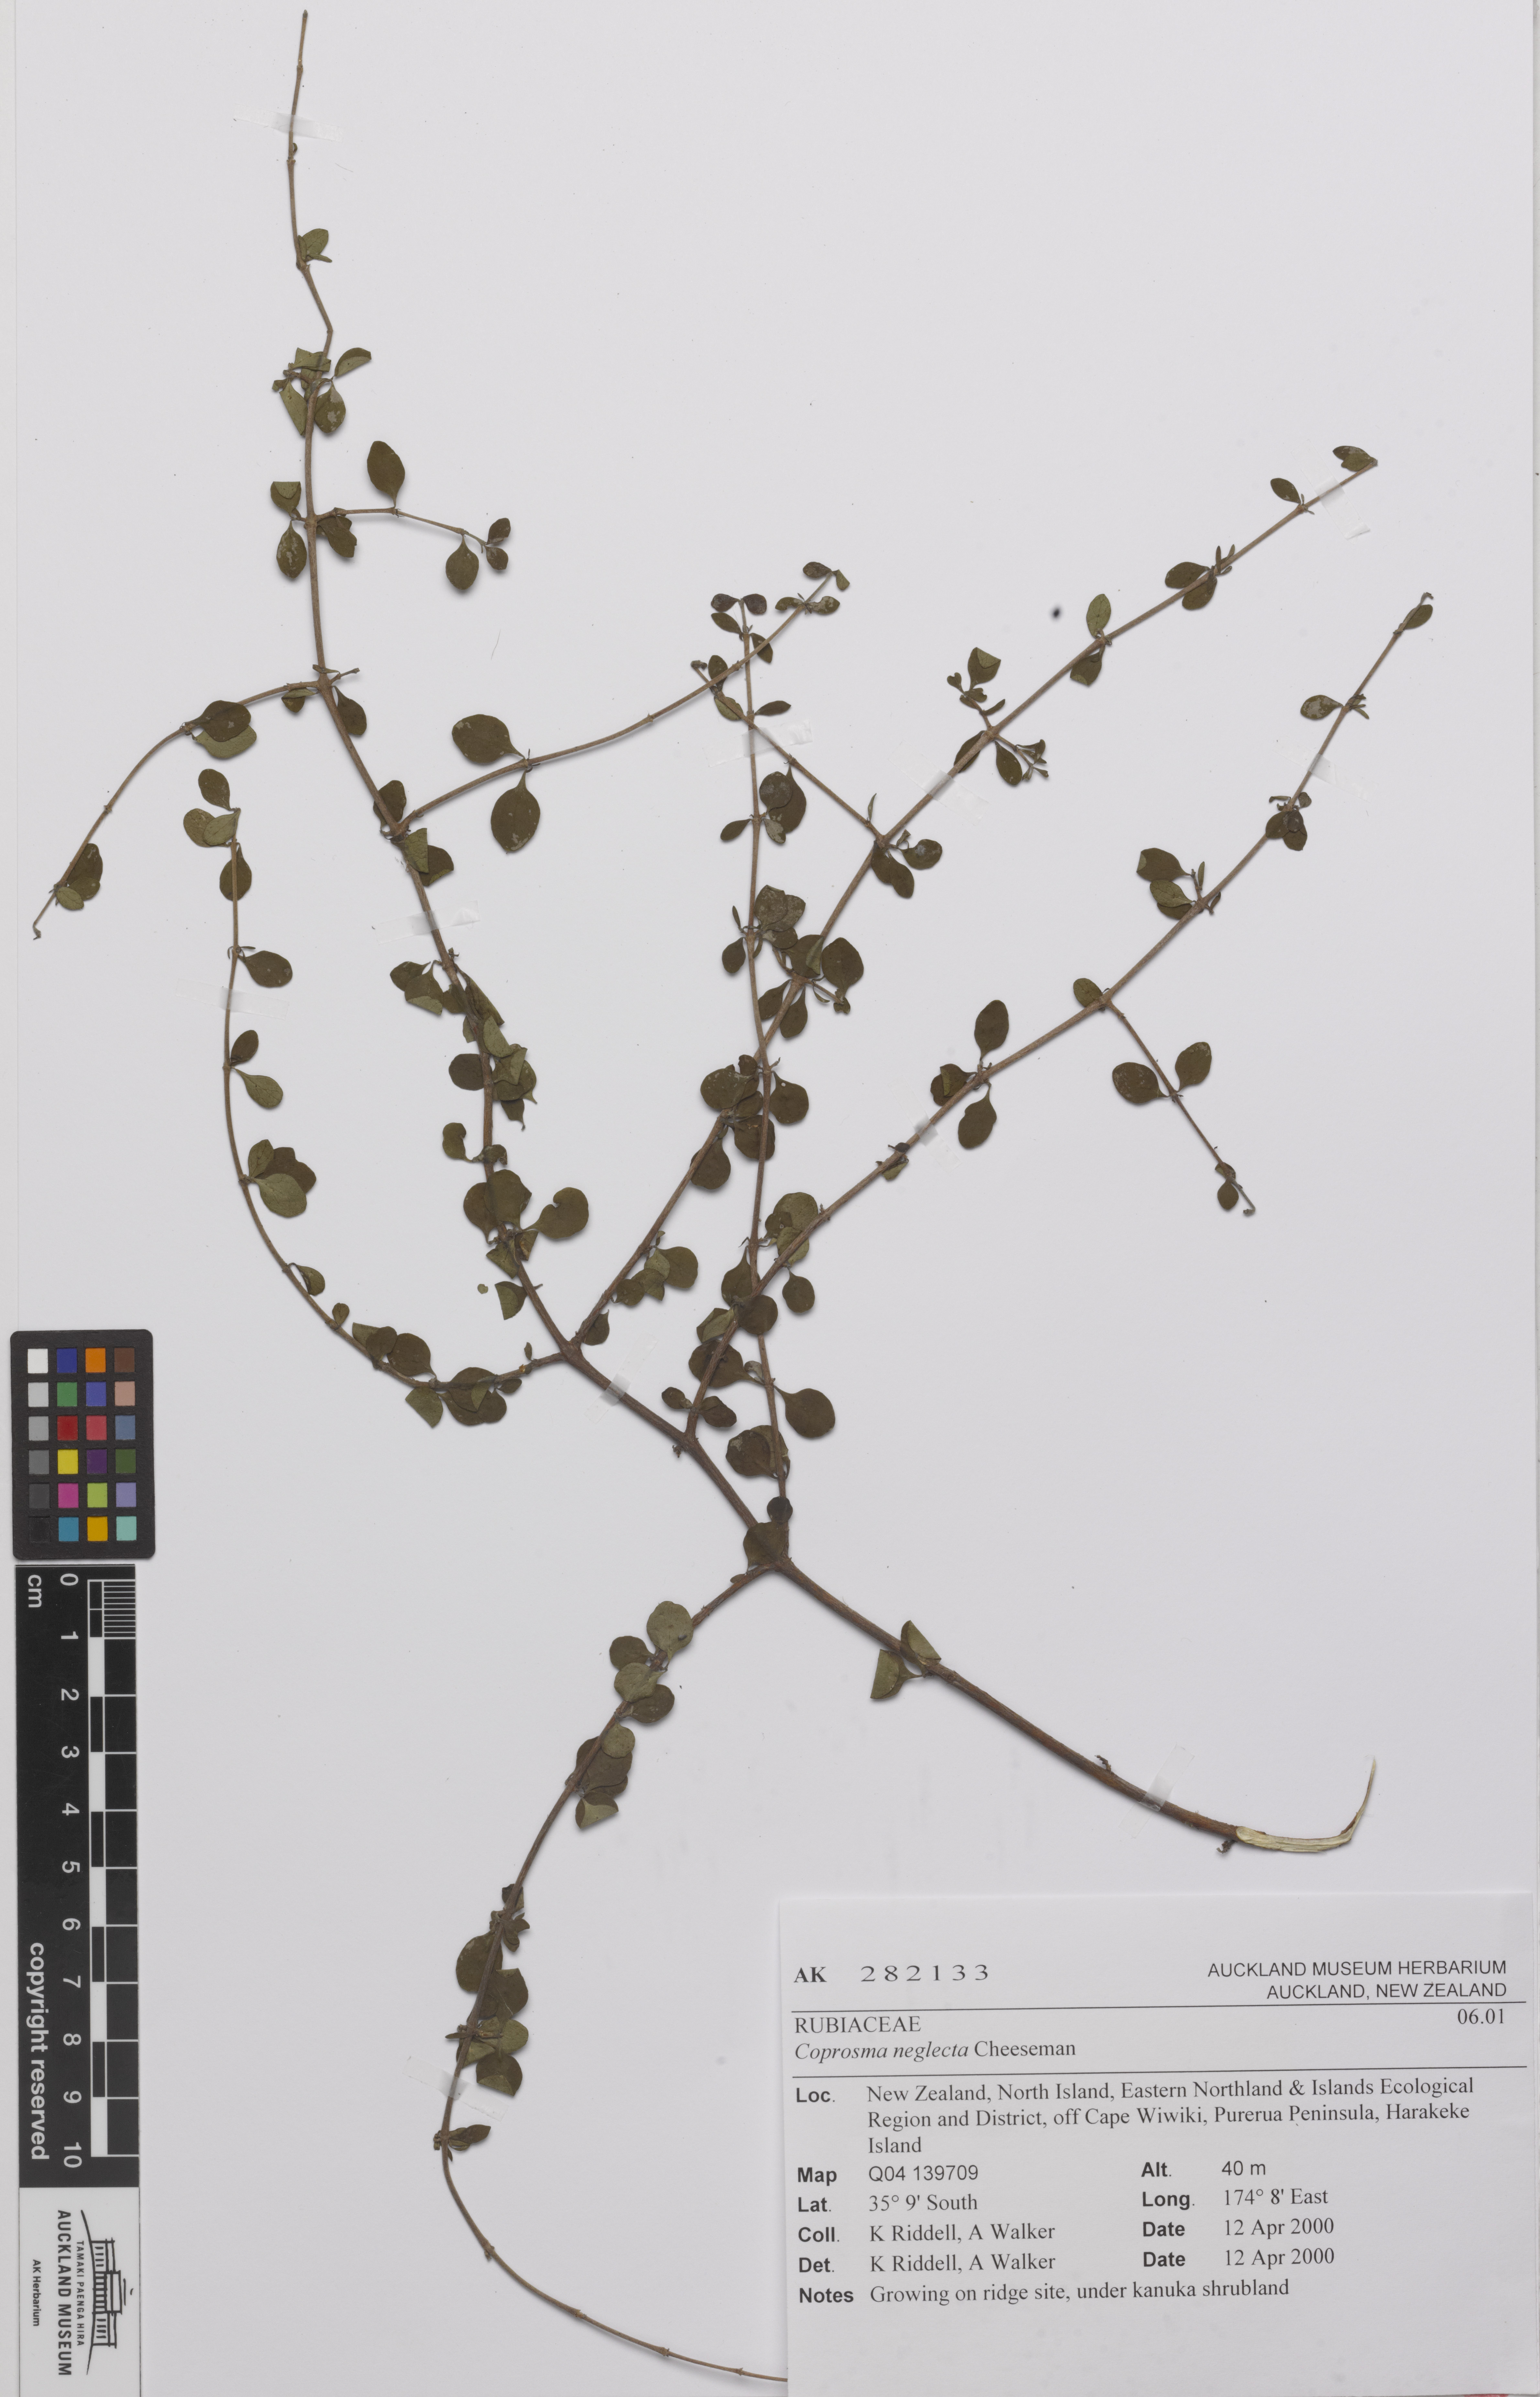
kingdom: Plantae
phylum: Tracheophyta
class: Magnoliopsida
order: Gentianales
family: Rubiaceae
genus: Coprosma
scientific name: Coprosma rhamnoides
